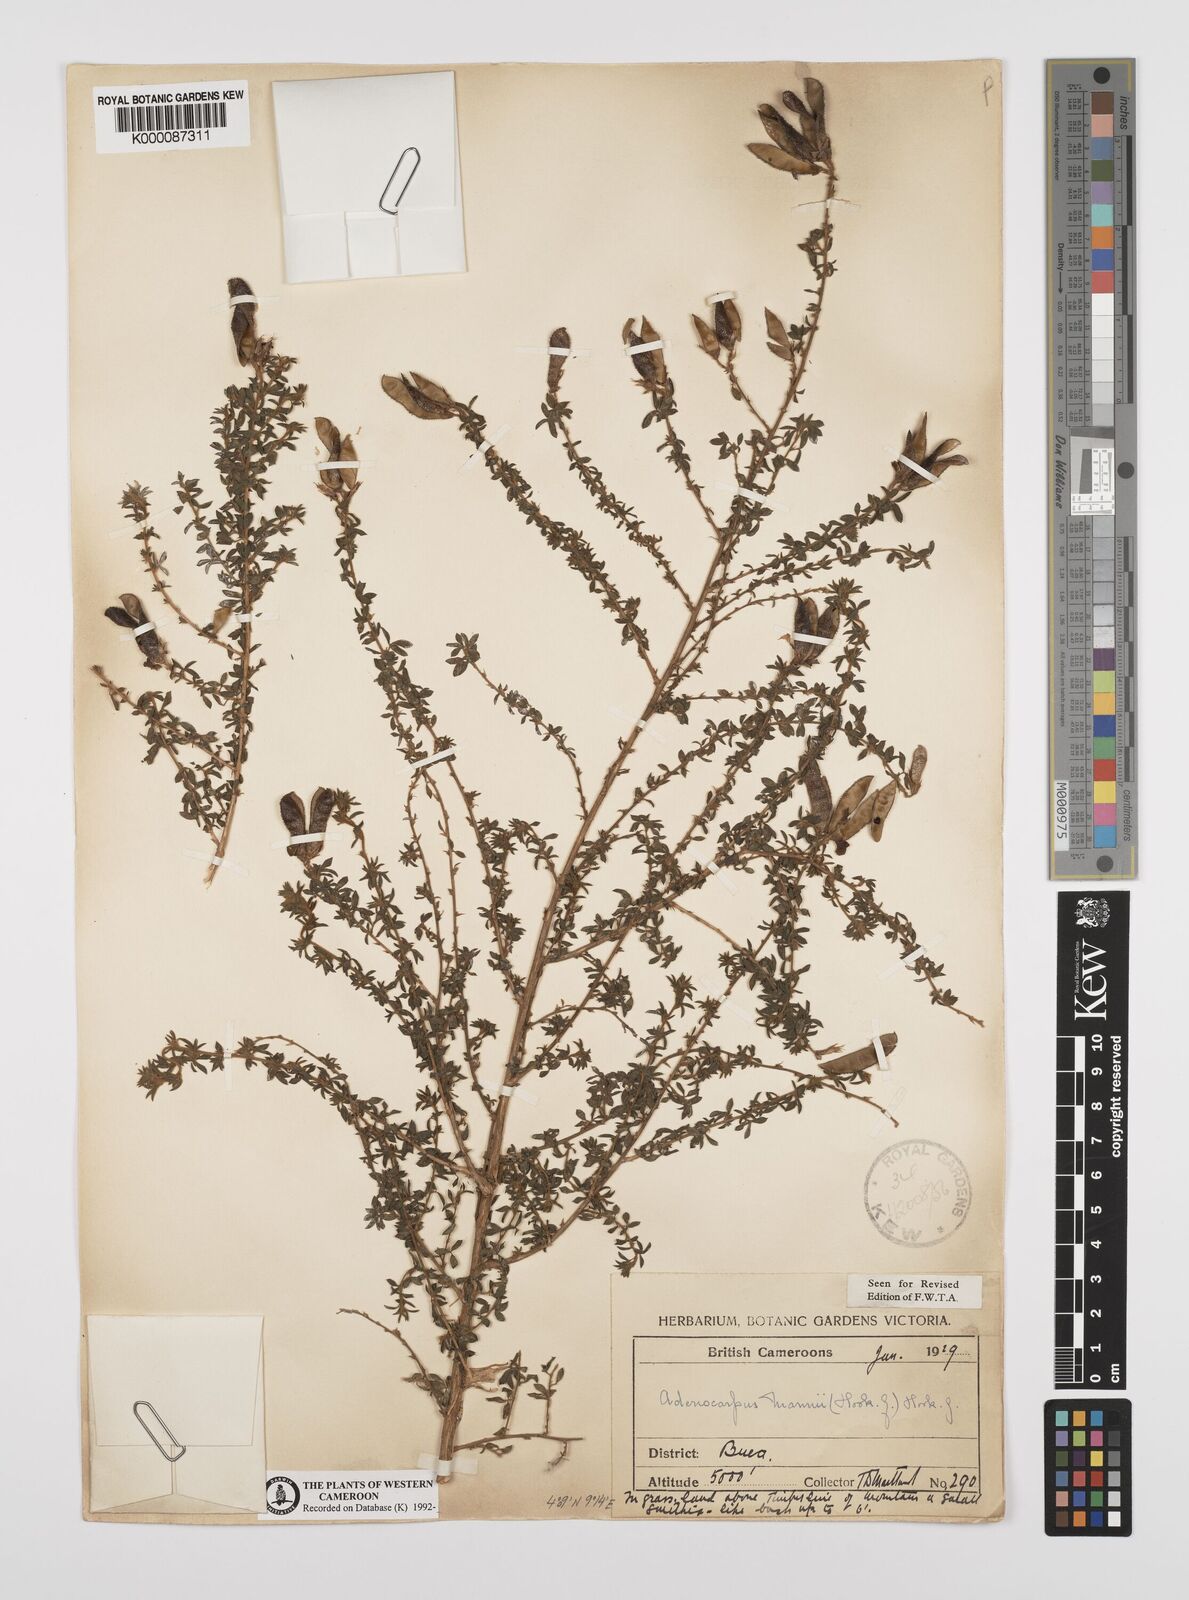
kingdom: Plantae
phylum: Tracheophyta
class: Magnoliopsida
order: Fabales
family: Fabaceae
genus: Adenocarpus
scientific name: Adenocarpus mannii
